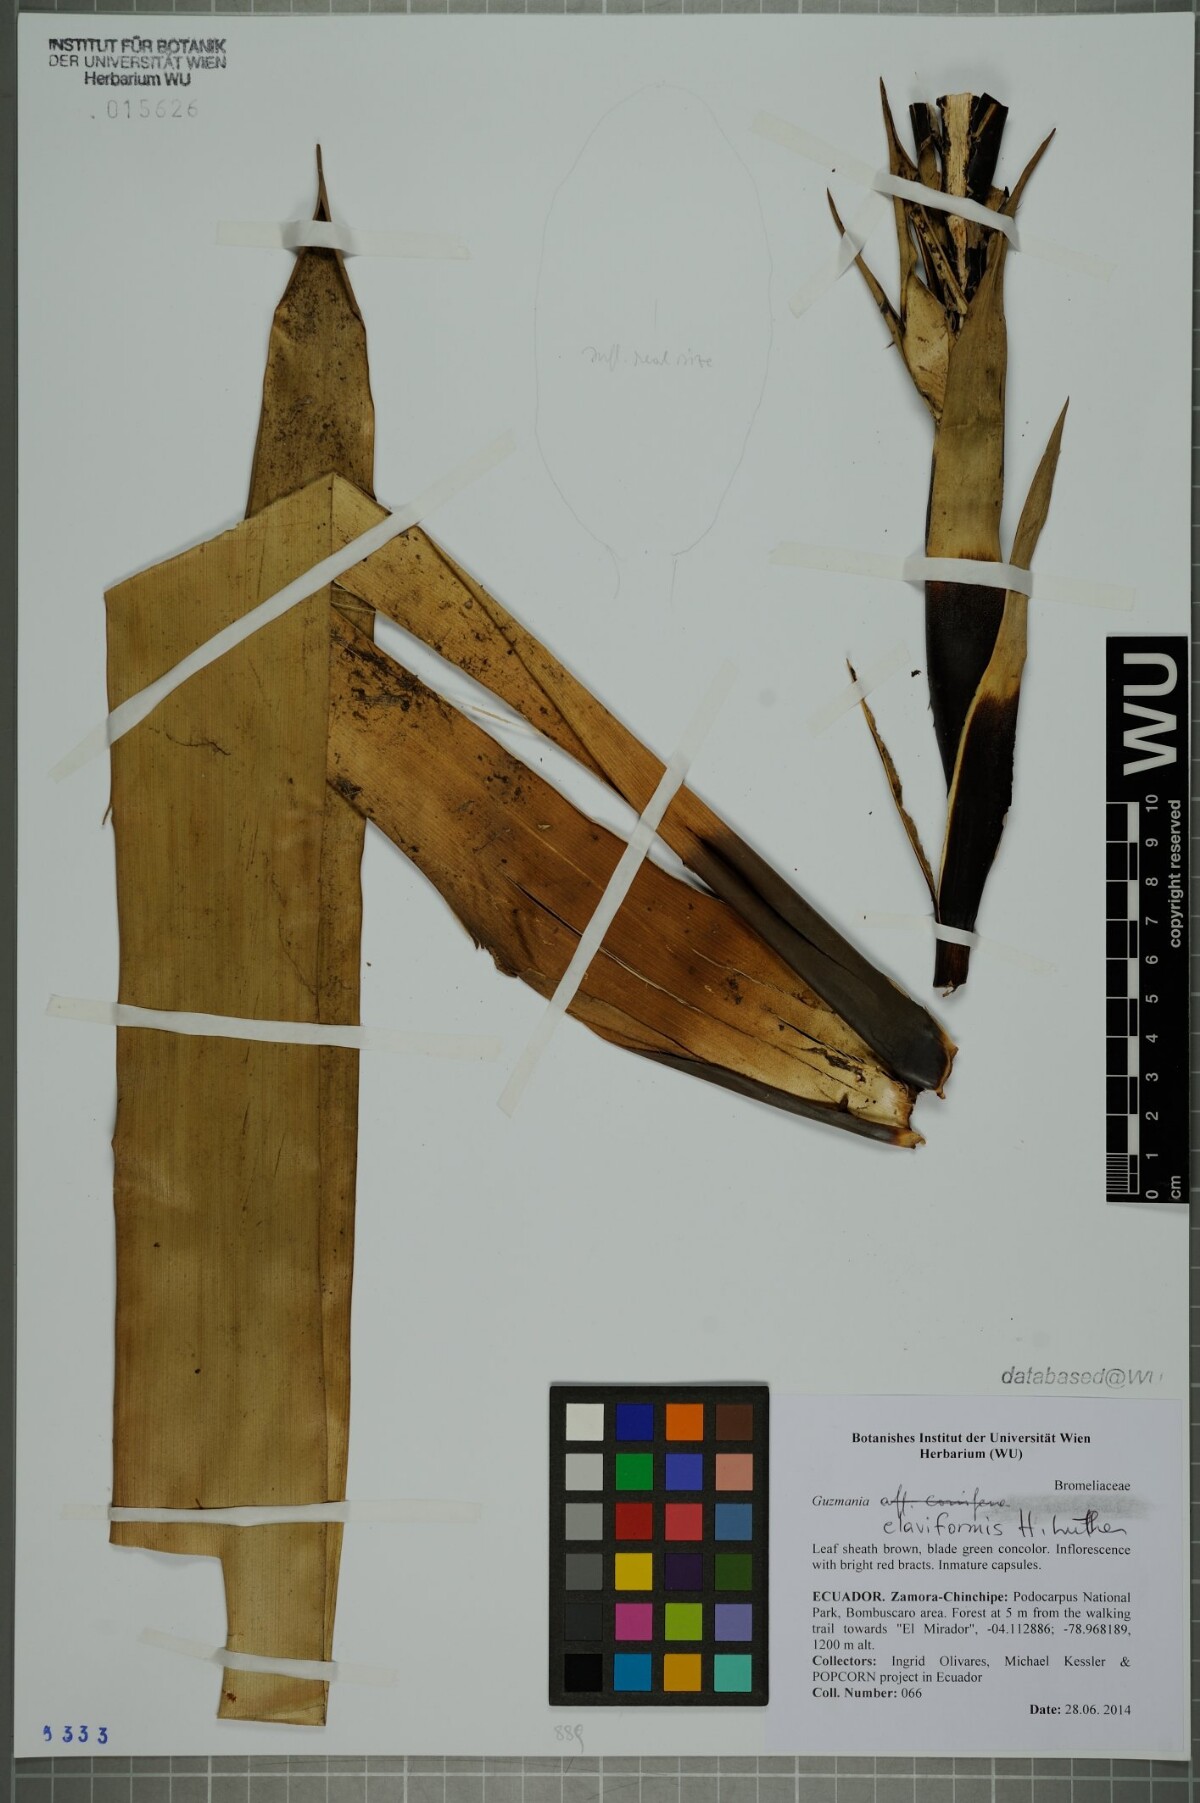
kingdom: Plantae
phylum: Tracheophyta
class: Liliopsida
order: Poales
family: Bromeliaceae
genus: Guzmania
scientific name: Guzmania claviformis
